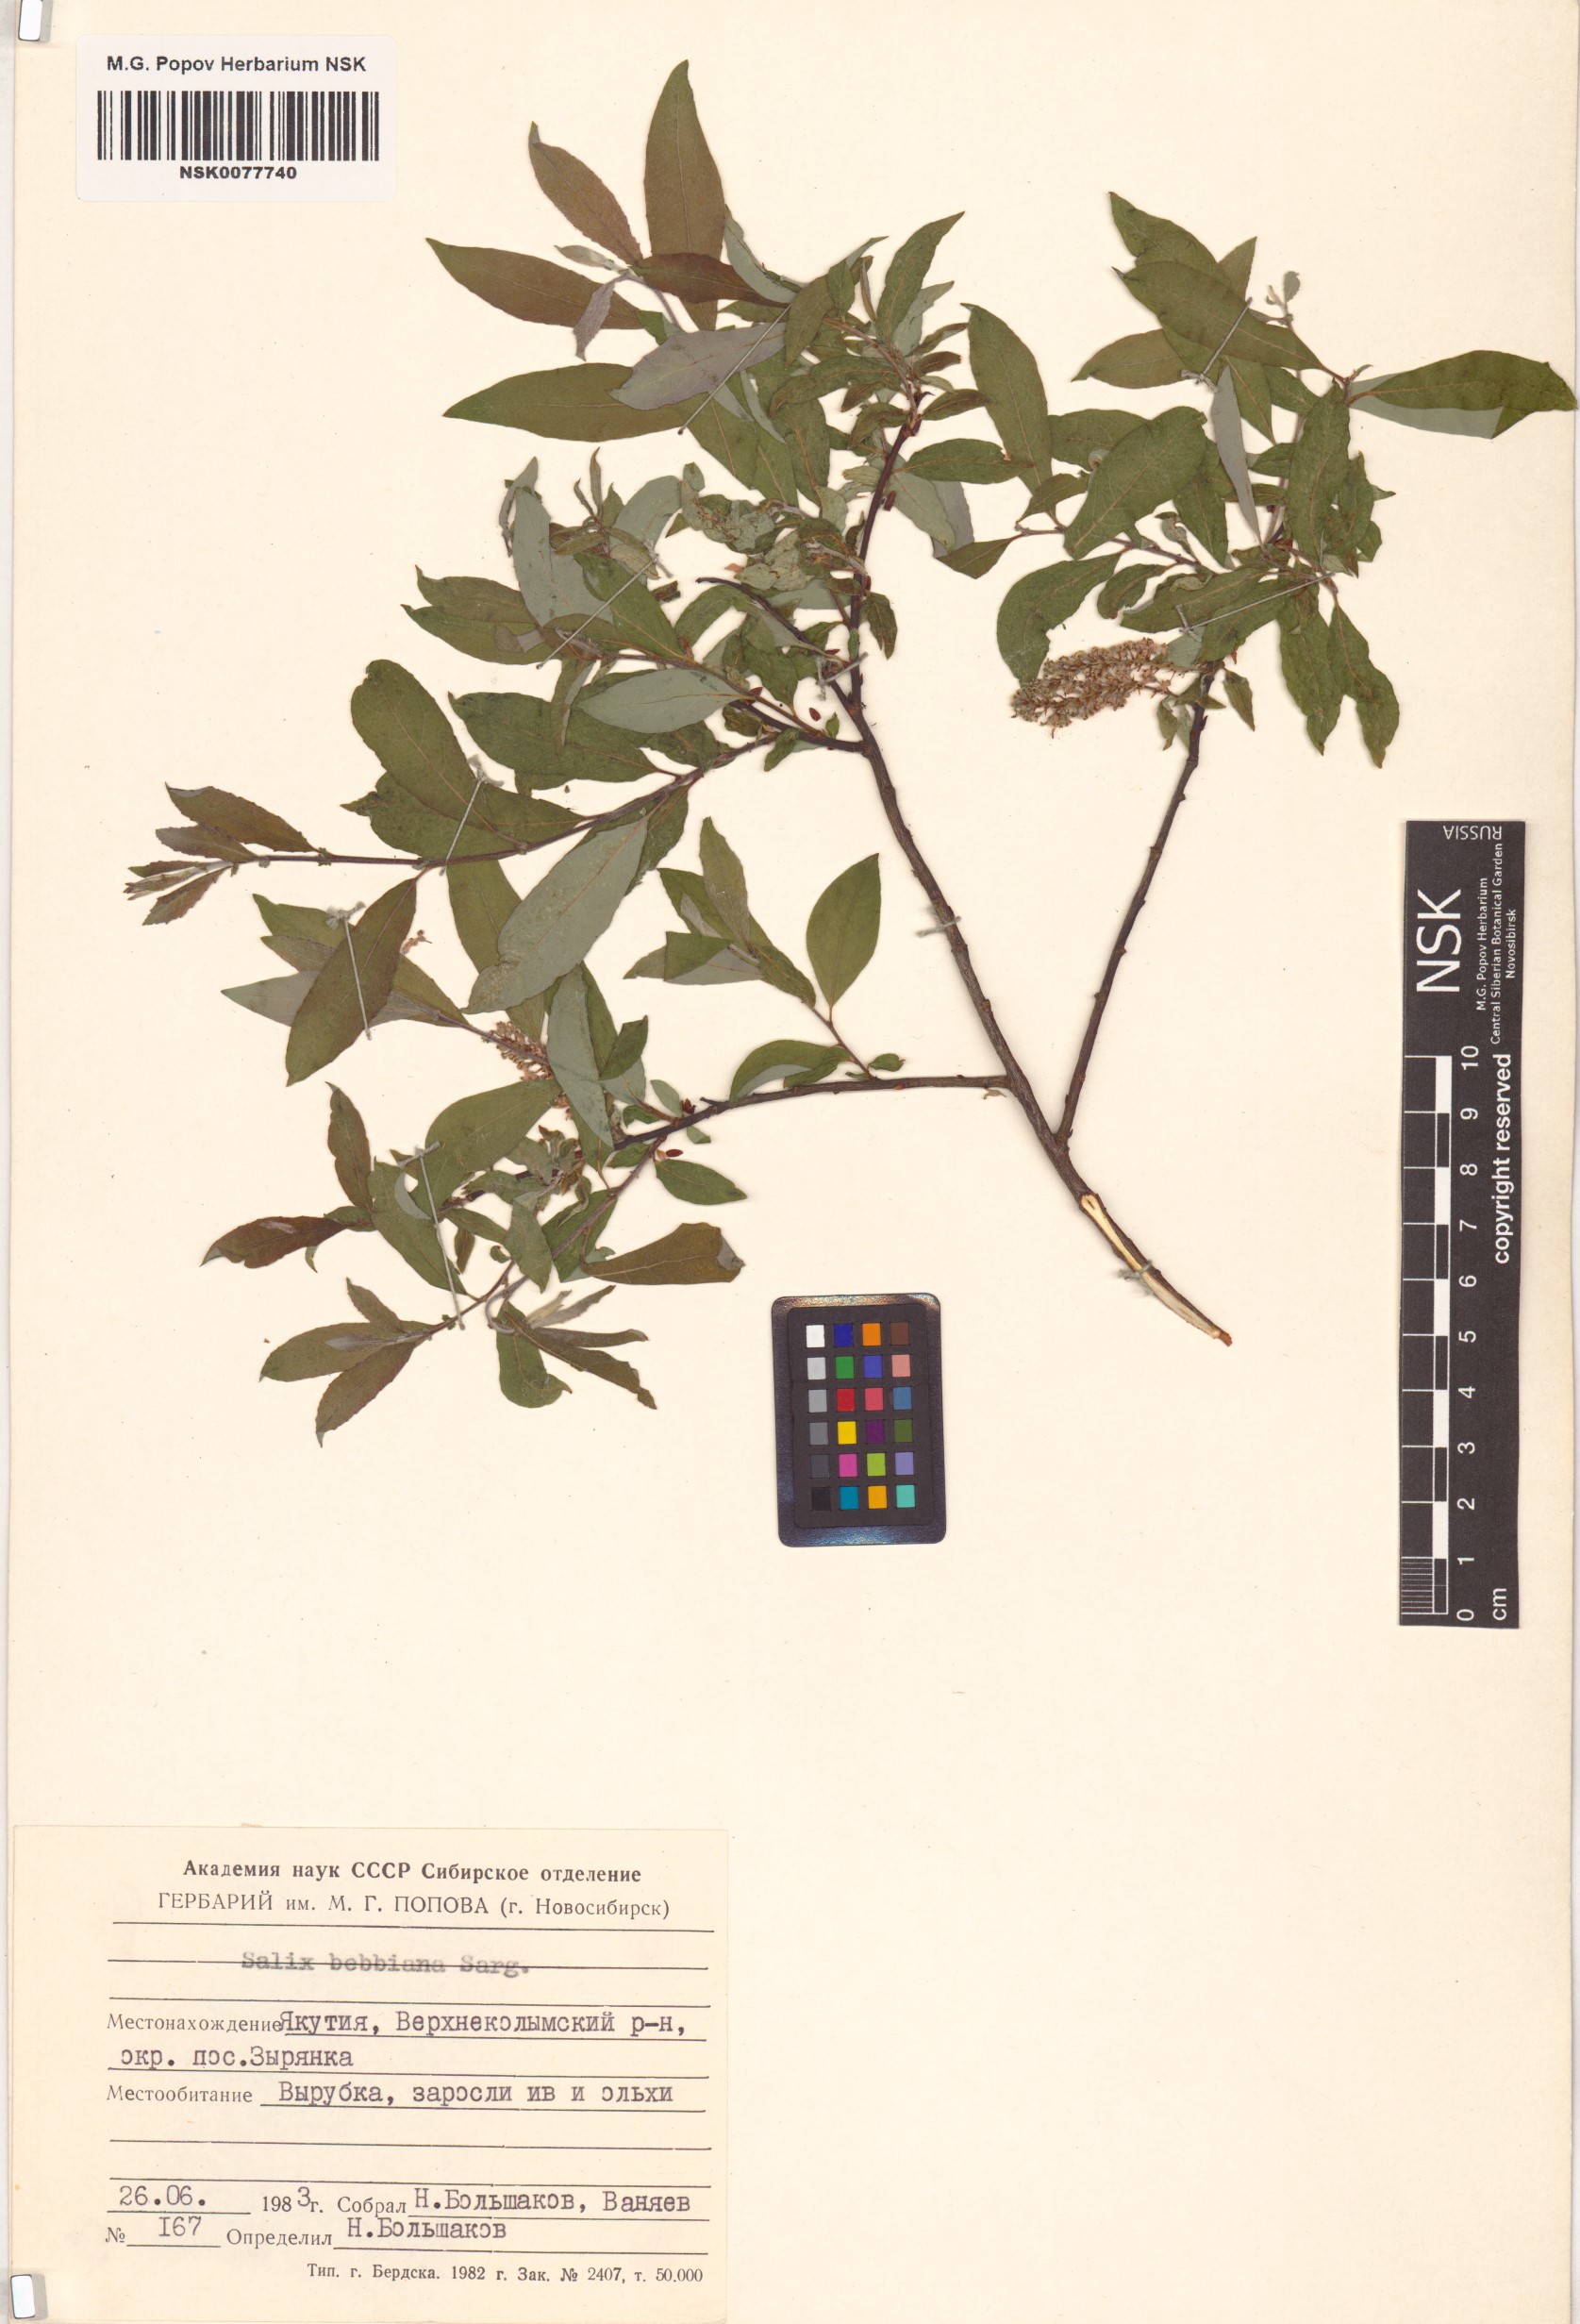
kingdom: Plantae
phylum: Tracheophyta
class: Magnoliopsida
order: Malpighiales
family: Salicaceae
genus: Salix
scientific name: Salix bebbiana
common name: Bebb's willow
